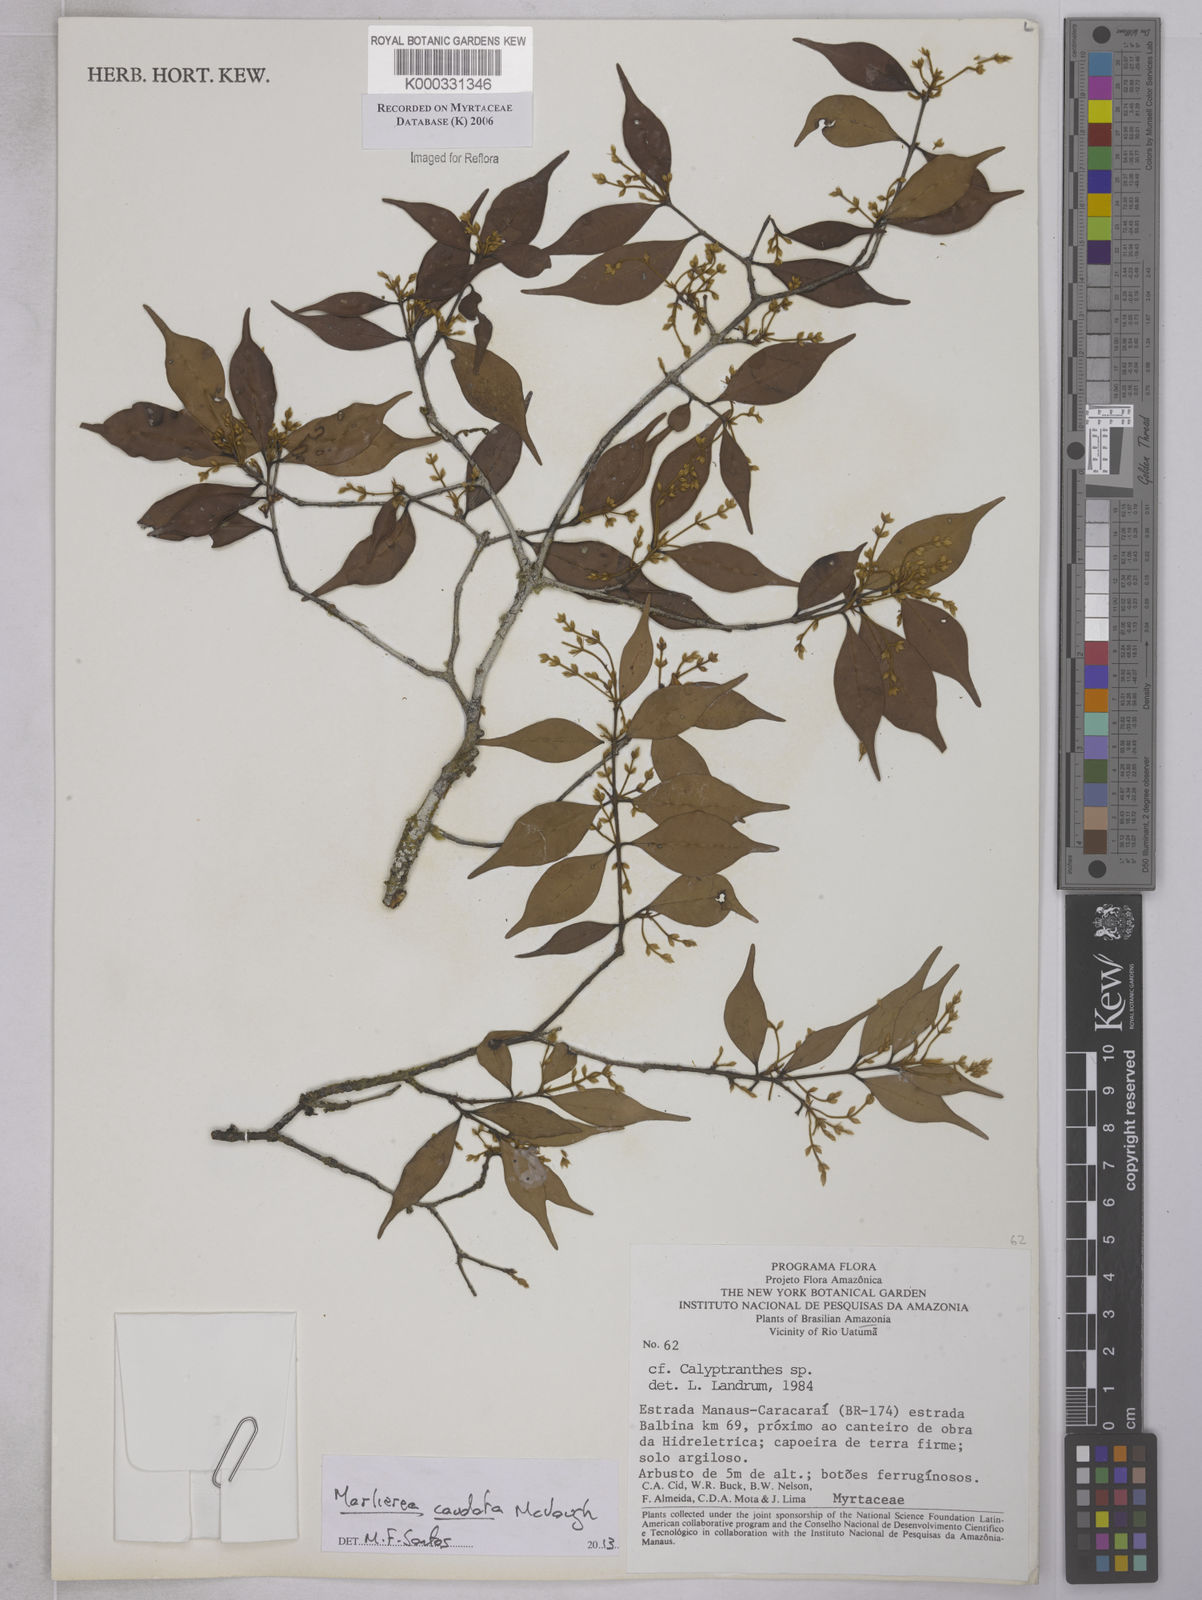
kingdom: Plantae
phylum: Tracheophyta
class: Magnoliopsida
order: Myrtales
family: Myrtaceae
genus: Calyptranthes
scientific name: Calyptranthes
